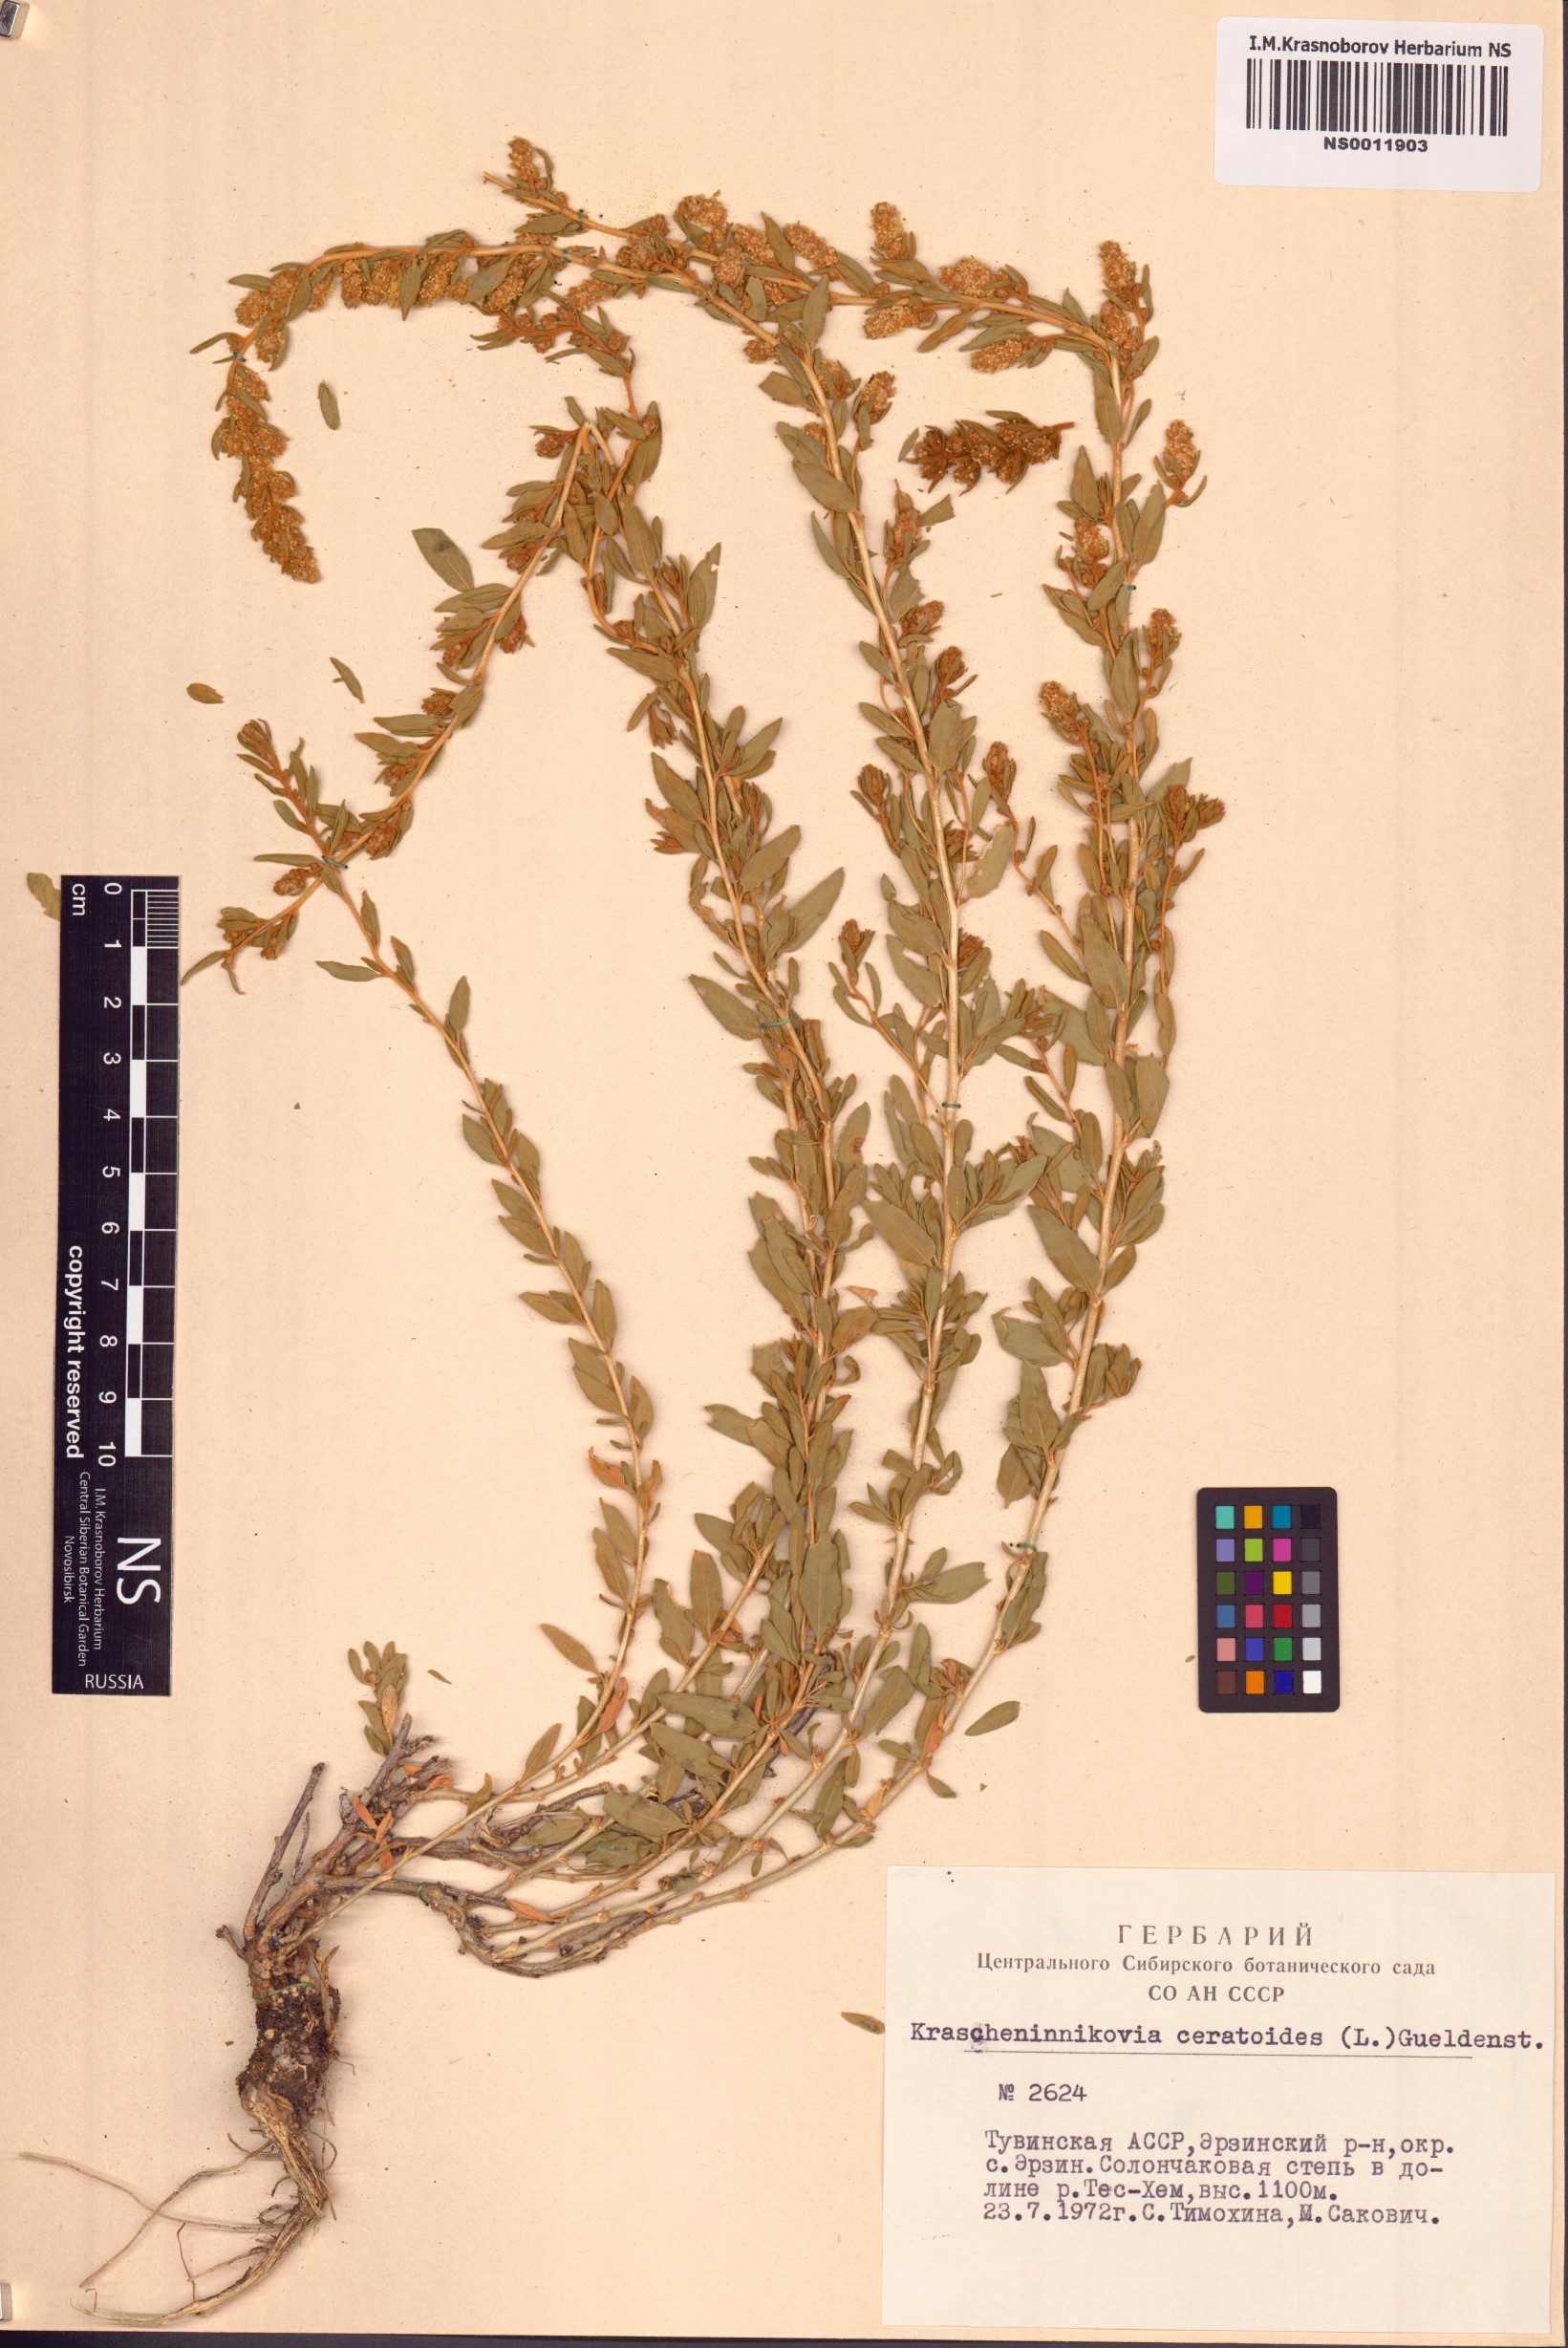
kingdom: Plantae
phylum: Tracheophyta
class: Magnoliopsida
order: Caryophyllales
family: Amaranthaceae
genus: Krascheninnikovia
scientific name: Krascheninnikovia ceratoides
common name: Pamirian winterfat
